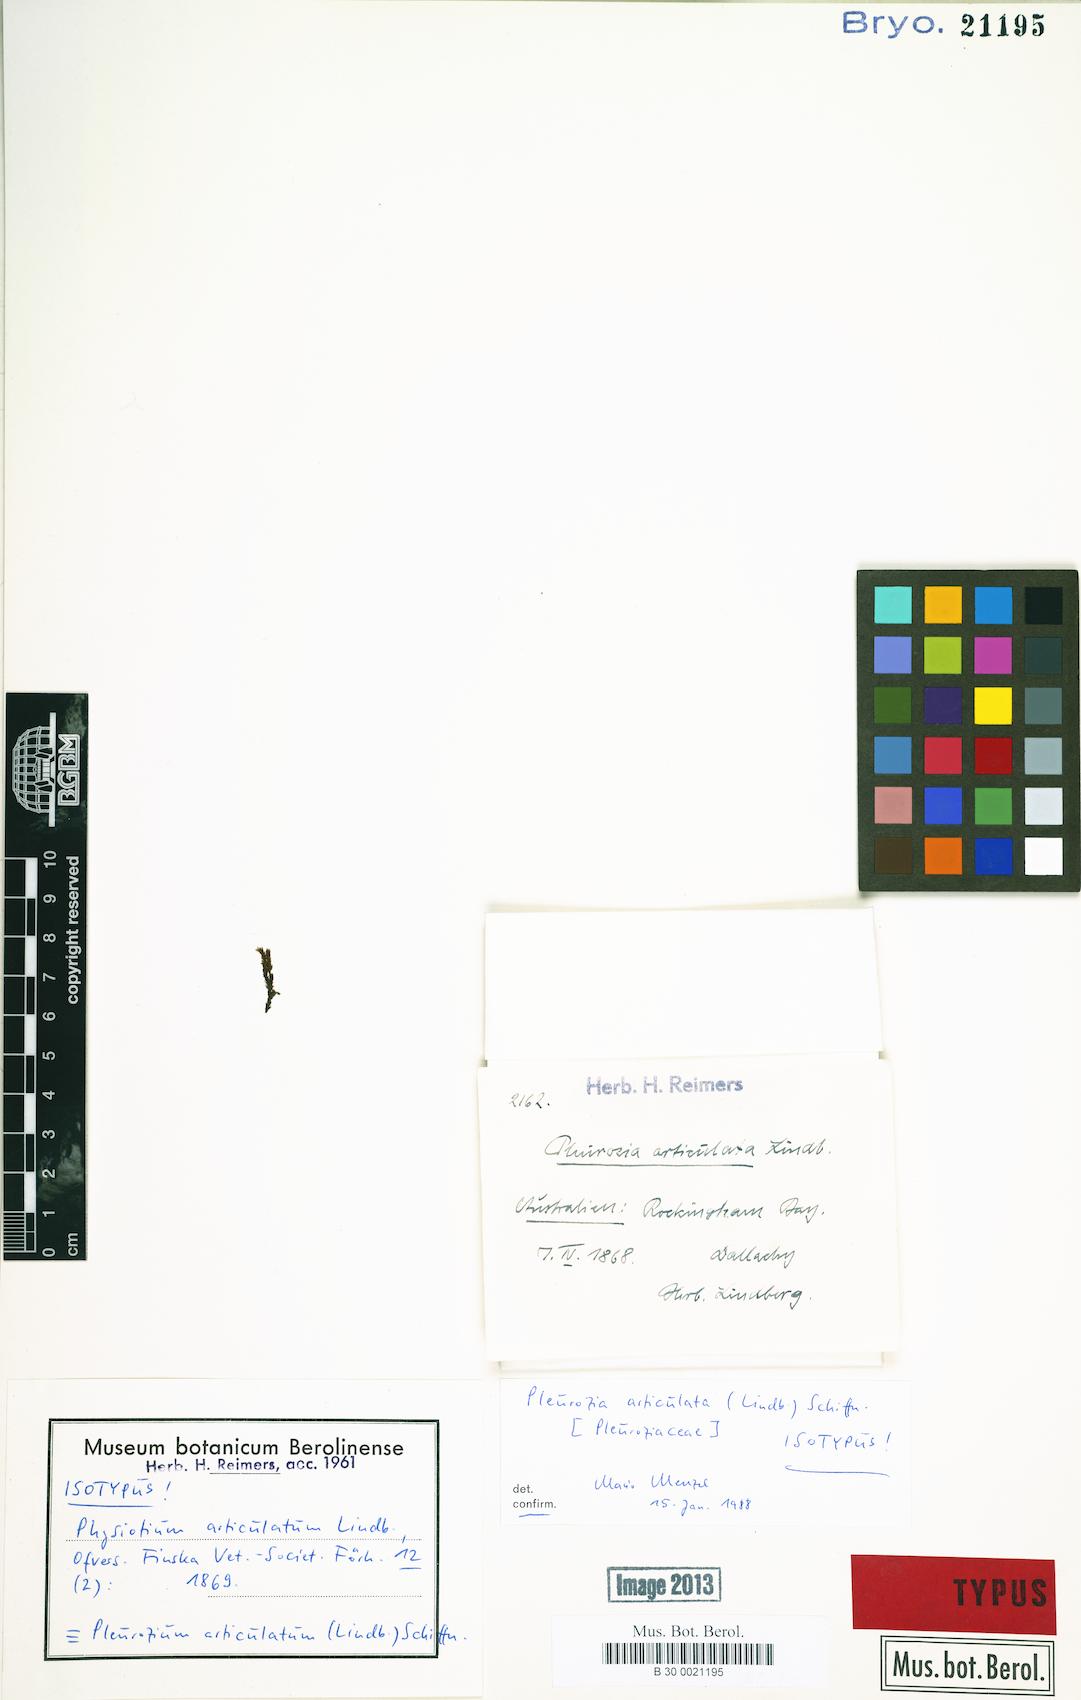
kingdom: Plantae
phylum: Marchantiophyta
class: Jungermanniopsida
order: Pleuroziales
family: Pleuroziaceae
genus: Pleurozia
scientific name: Pleurozia articulata
